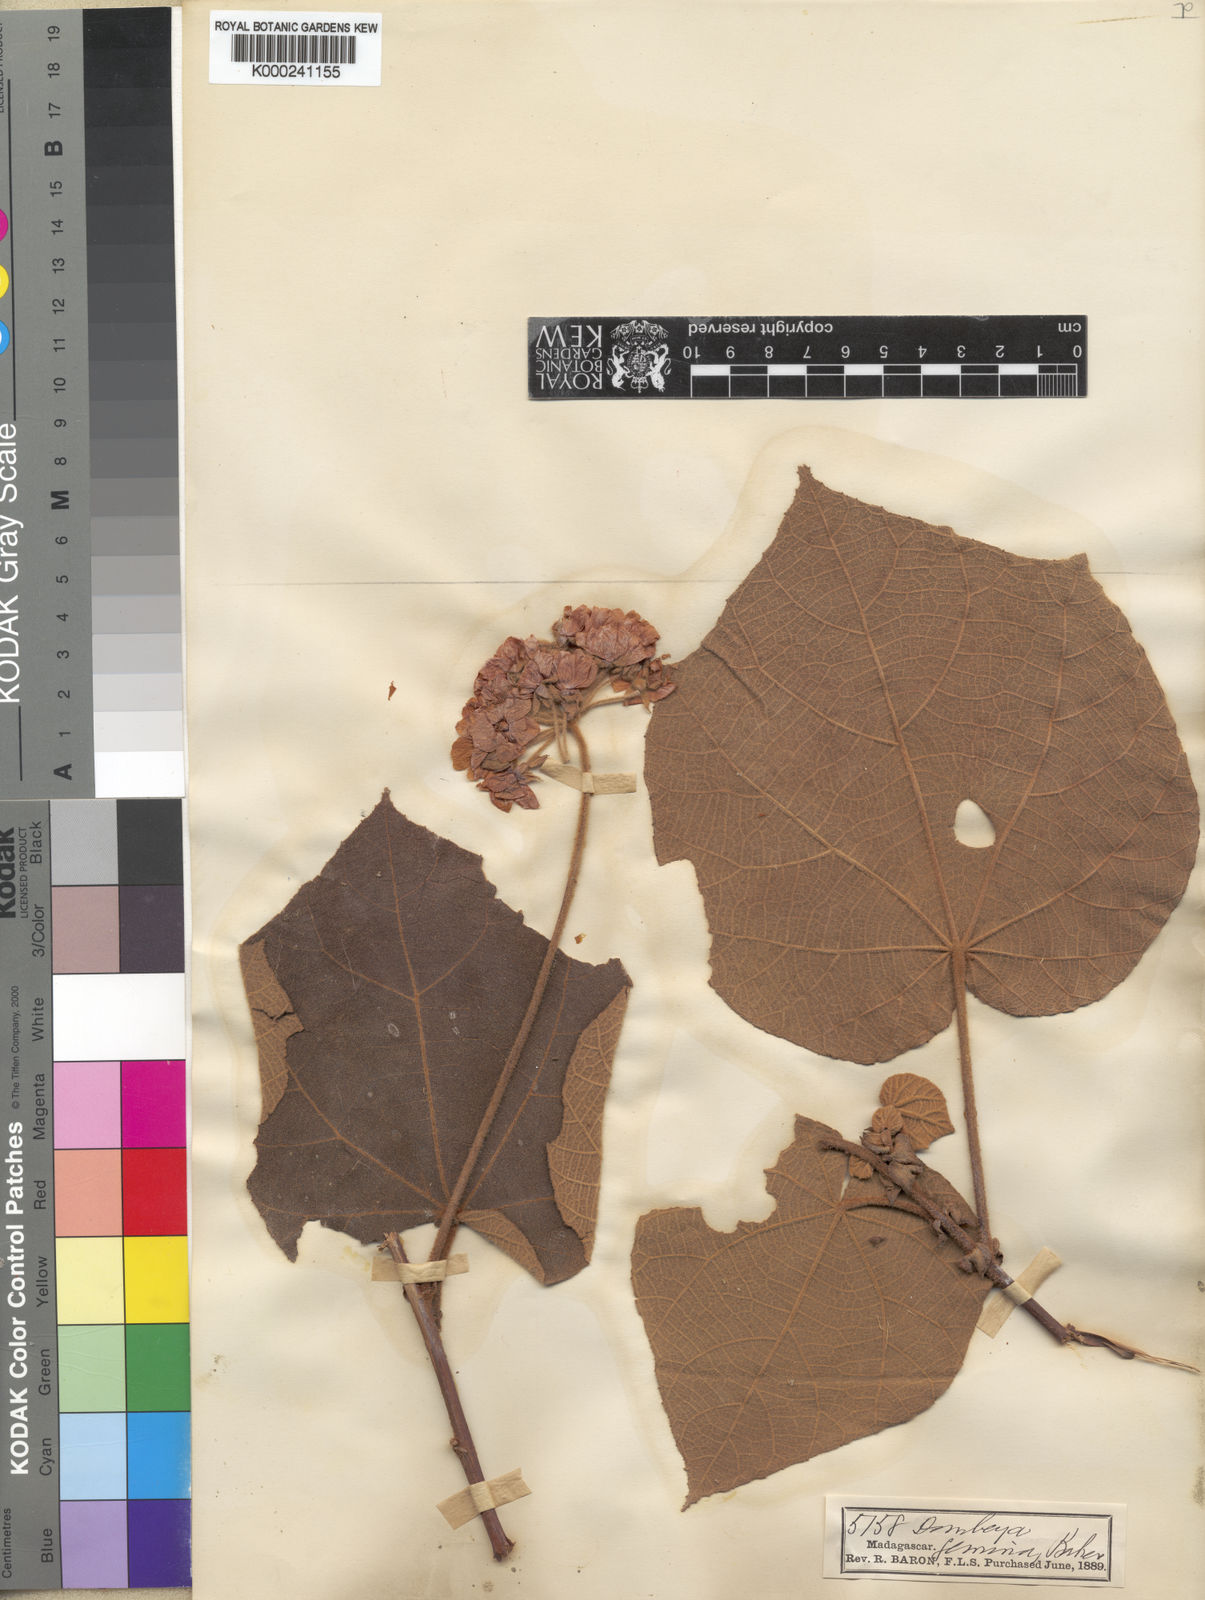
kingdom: Plantae
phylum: Tracheophyta
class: Magnoliopsida
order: Malvales
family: Malvaceae
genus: Dombeya
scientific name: Dombeya biumbellata
